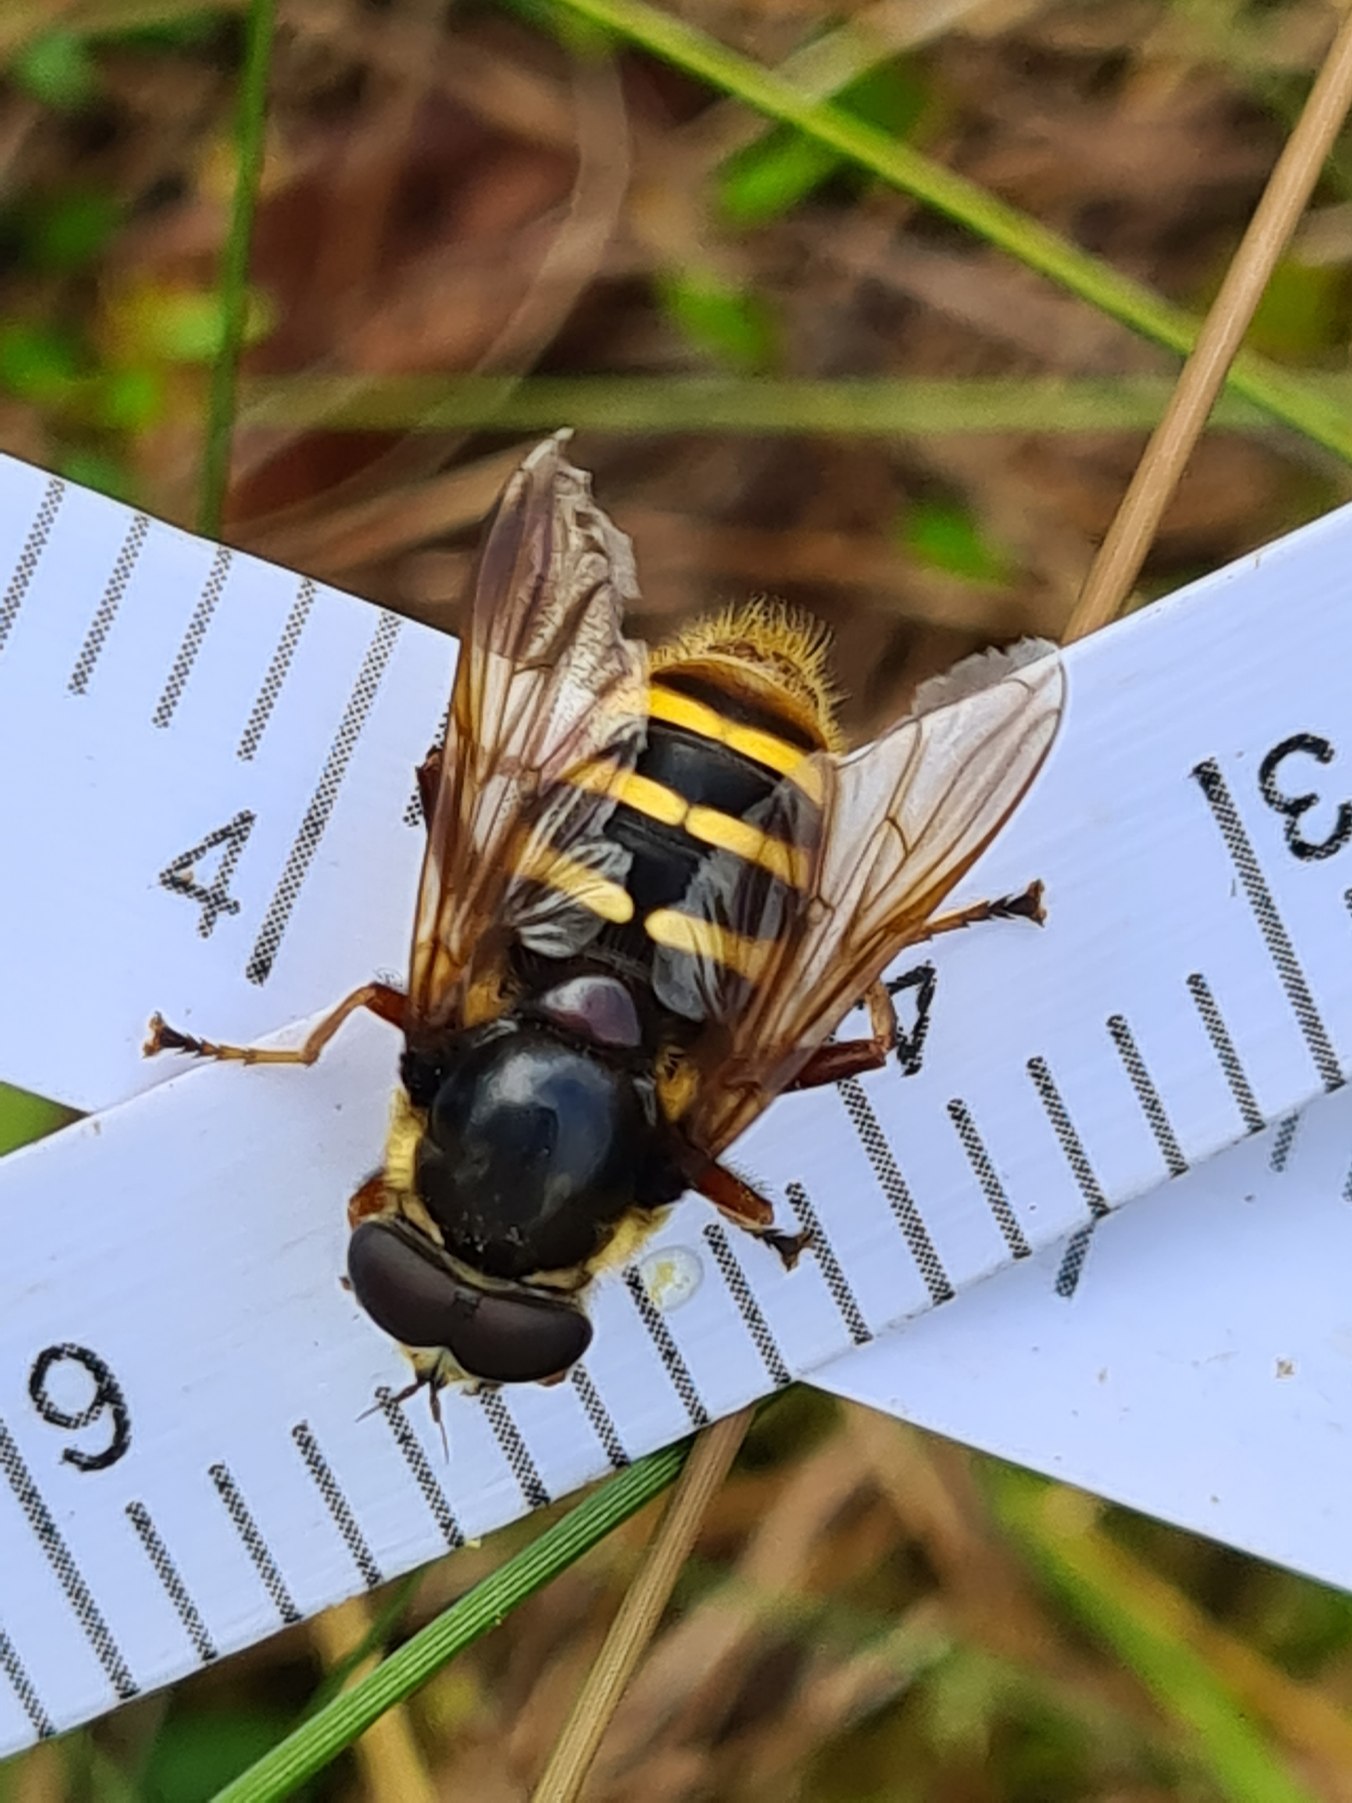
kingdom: Animalia
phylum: Arthropoda
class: Insecta
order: Diptera
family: Syrphidae
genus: Sericomyia
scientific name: Sericomyia silentis
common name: Tørve-silkesvirreflue
